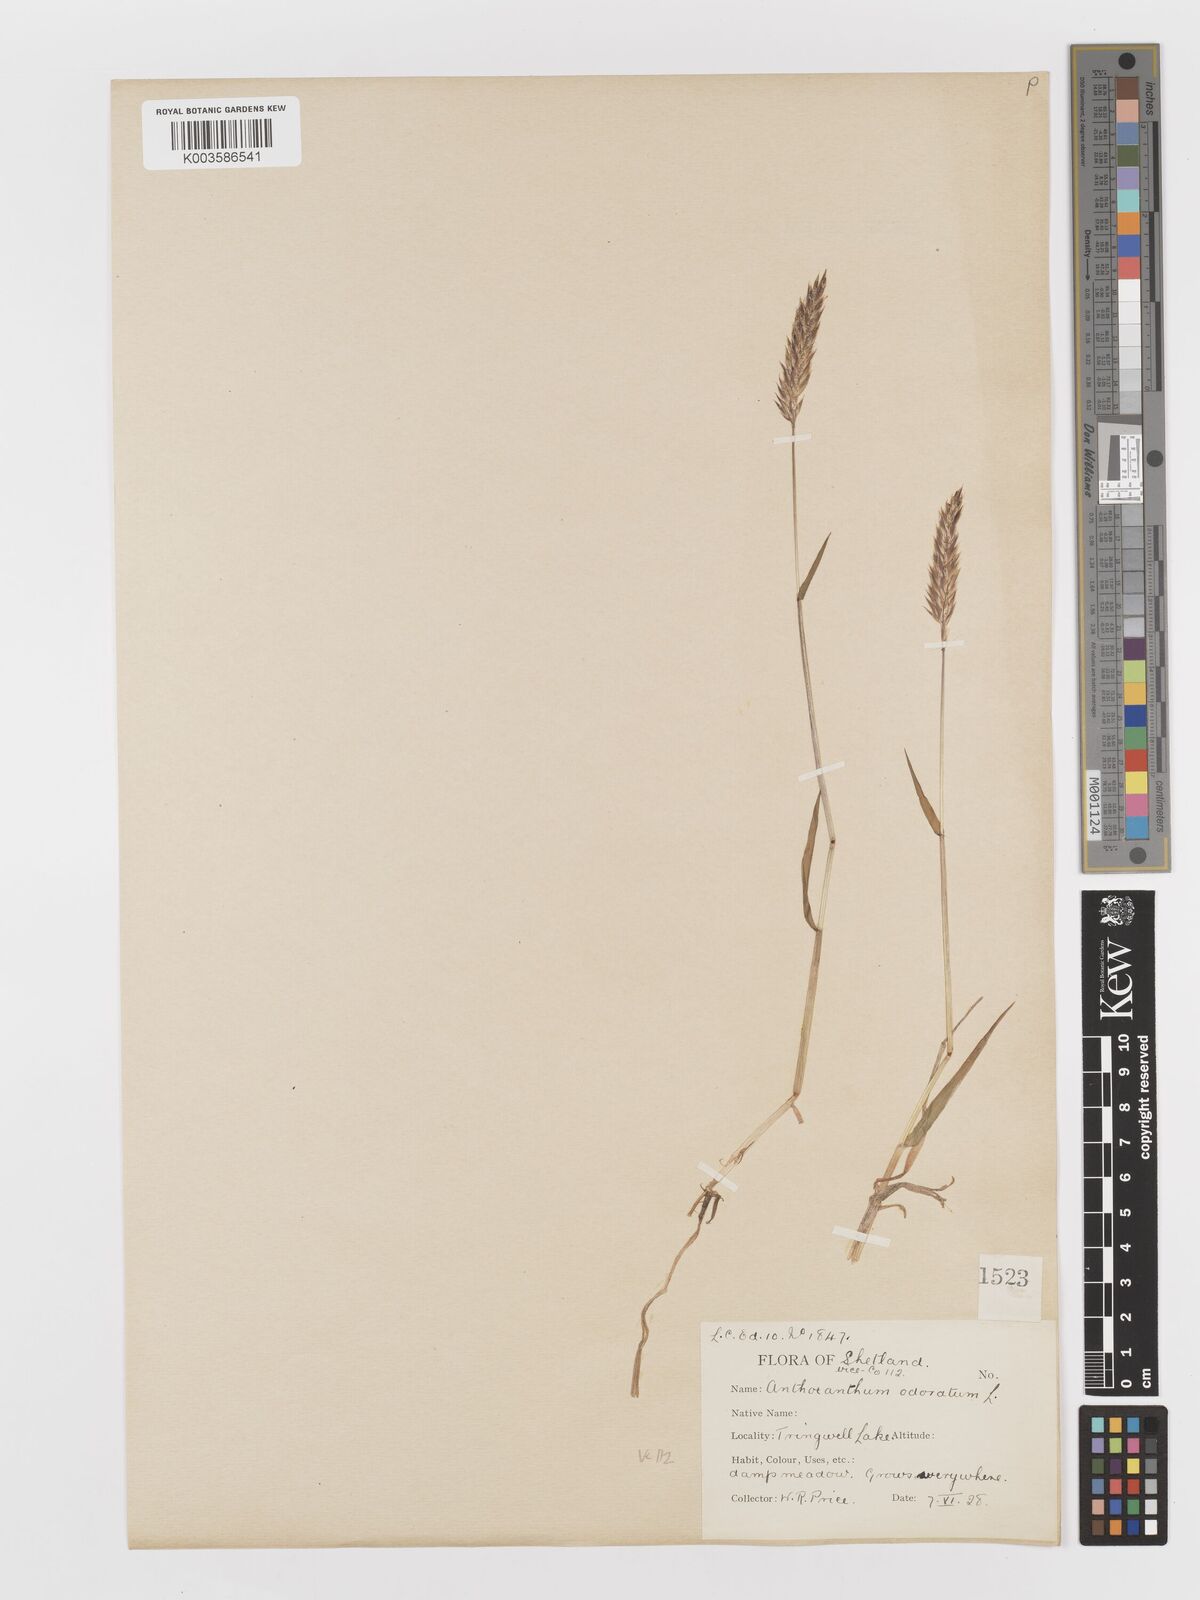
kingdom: Plantae
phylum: Tracheophyta
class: Liliopsida
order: Poales
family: Poaceae
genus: Anthoxanthum
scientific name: Anthoxanthum odoratum
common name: Sweet vernalgrass
